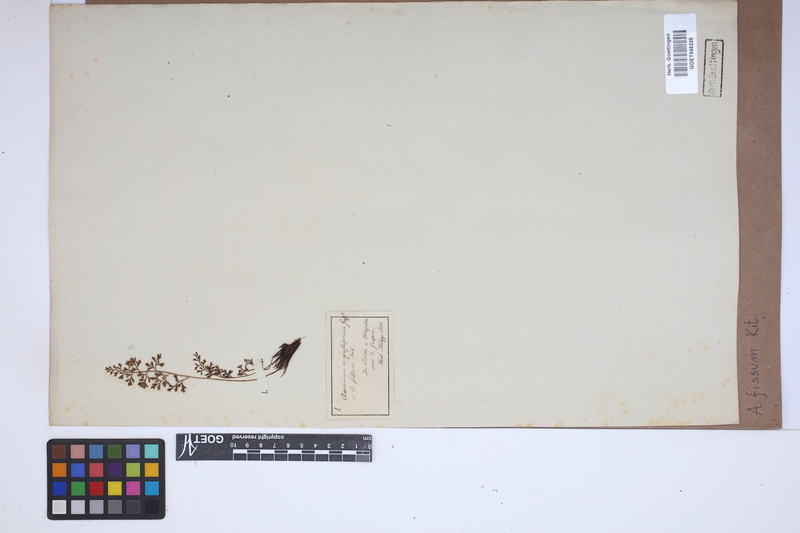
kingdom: Plantae
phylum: Tracheophyta
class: Polypodiopsida
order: Polypodiales
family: Aspleniaceae
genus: Asplenium
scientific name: Asplenium fissum
